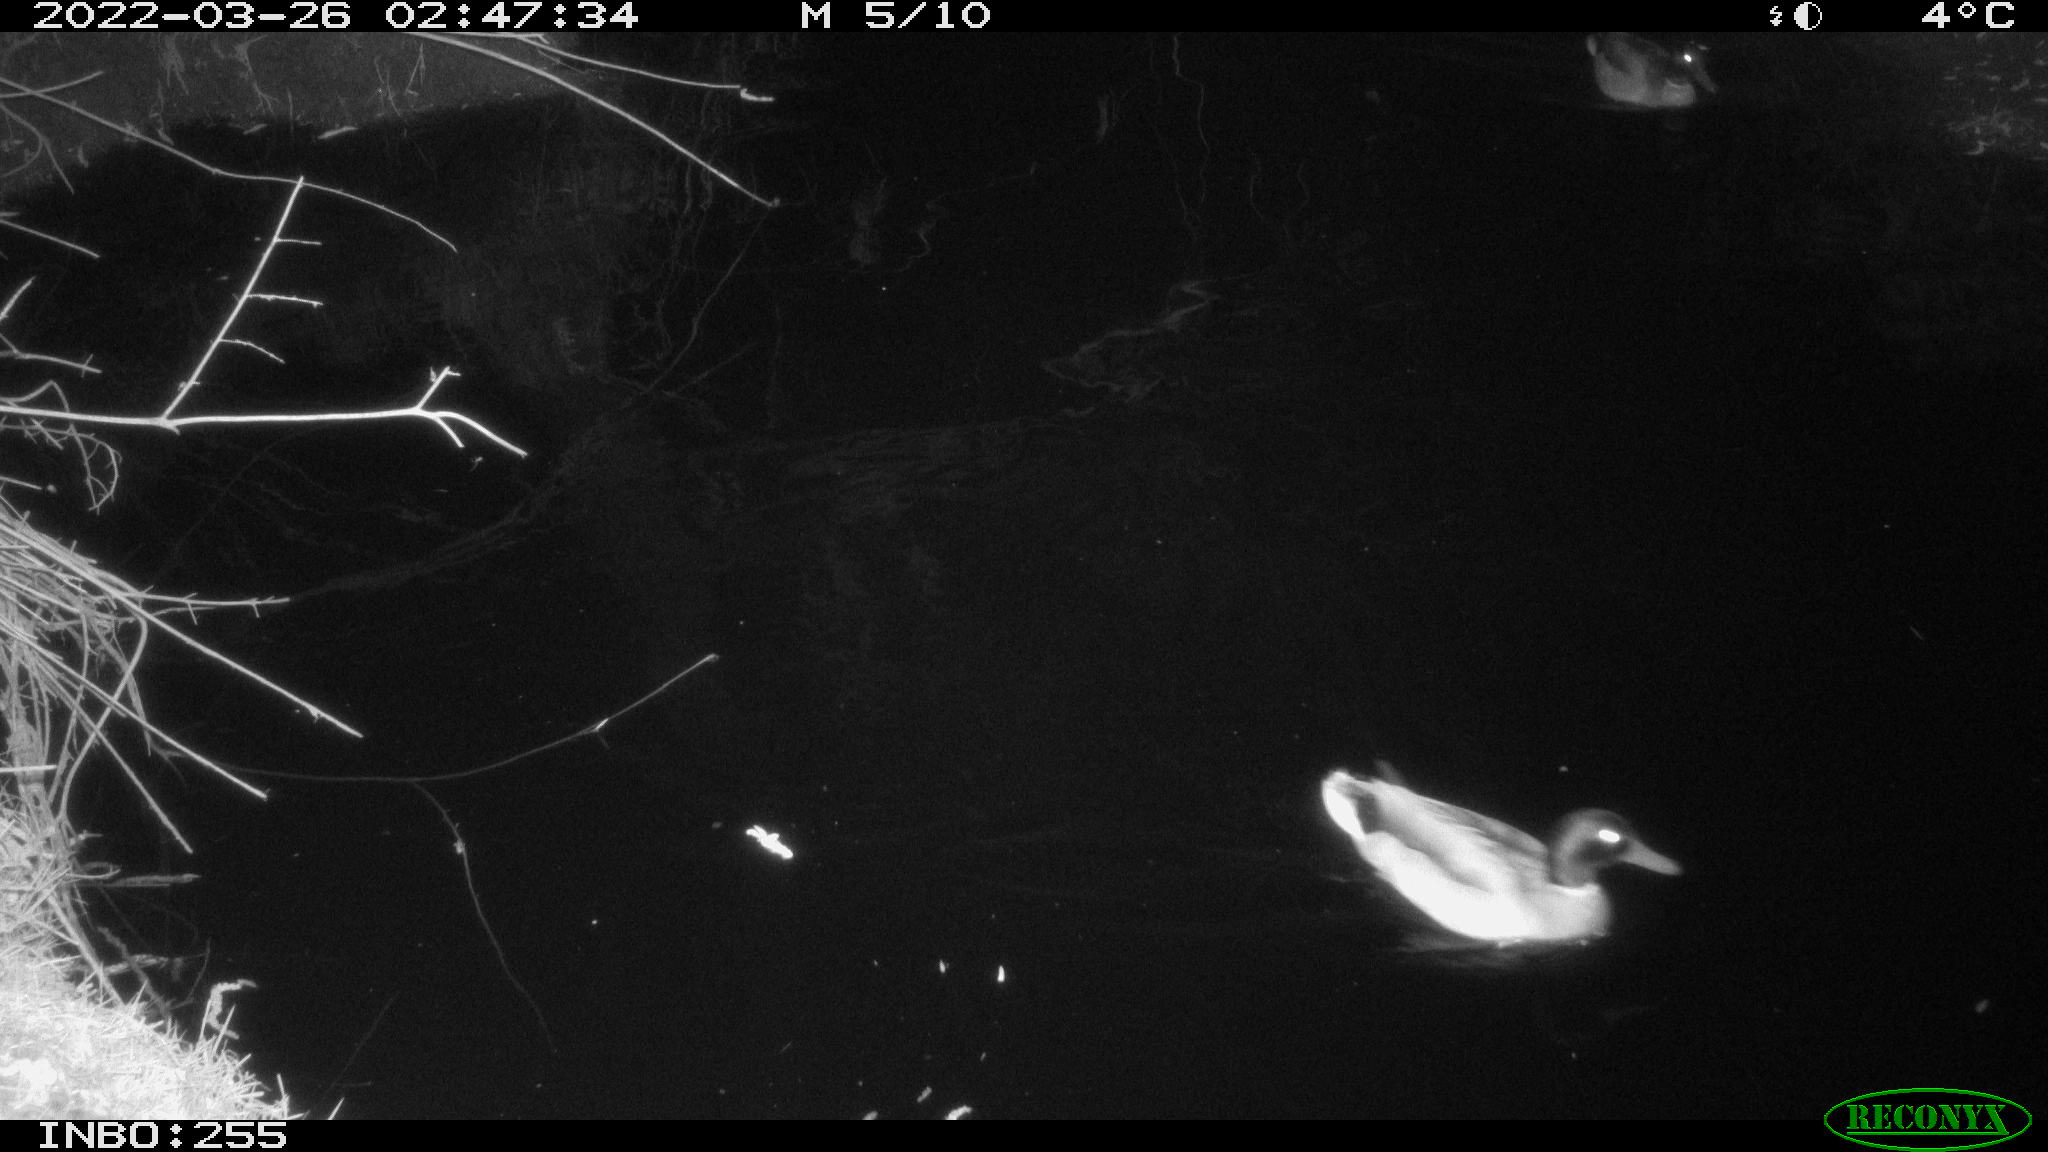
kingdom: Animalia
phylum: Chordata
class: Aves
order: Anseriformes
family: Anatidae
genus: Anas
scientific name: Anas platyrhynchos
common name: Mallard
